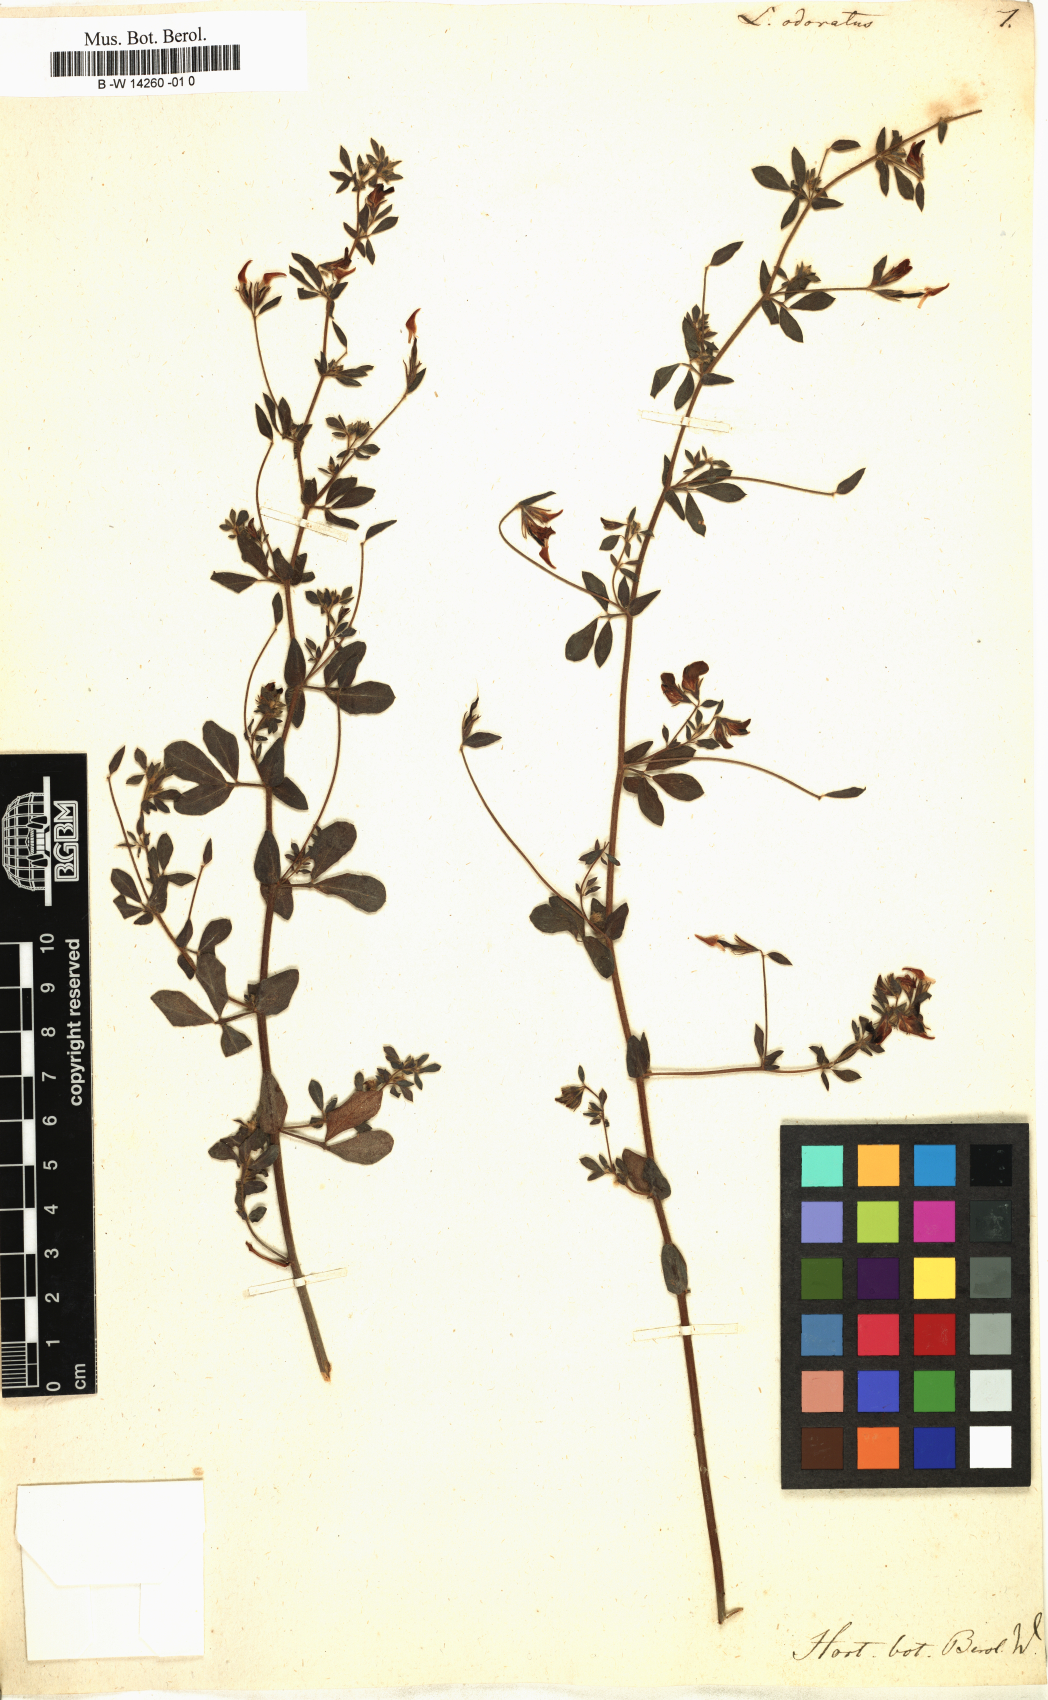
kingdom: Plantae
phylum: Tracheophyta
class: Magnoliopsida
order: Fabales
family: Fabaceae
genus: Lotus
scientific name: Lotus subbiflorus
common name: Hairy bird's-foot trefoil
